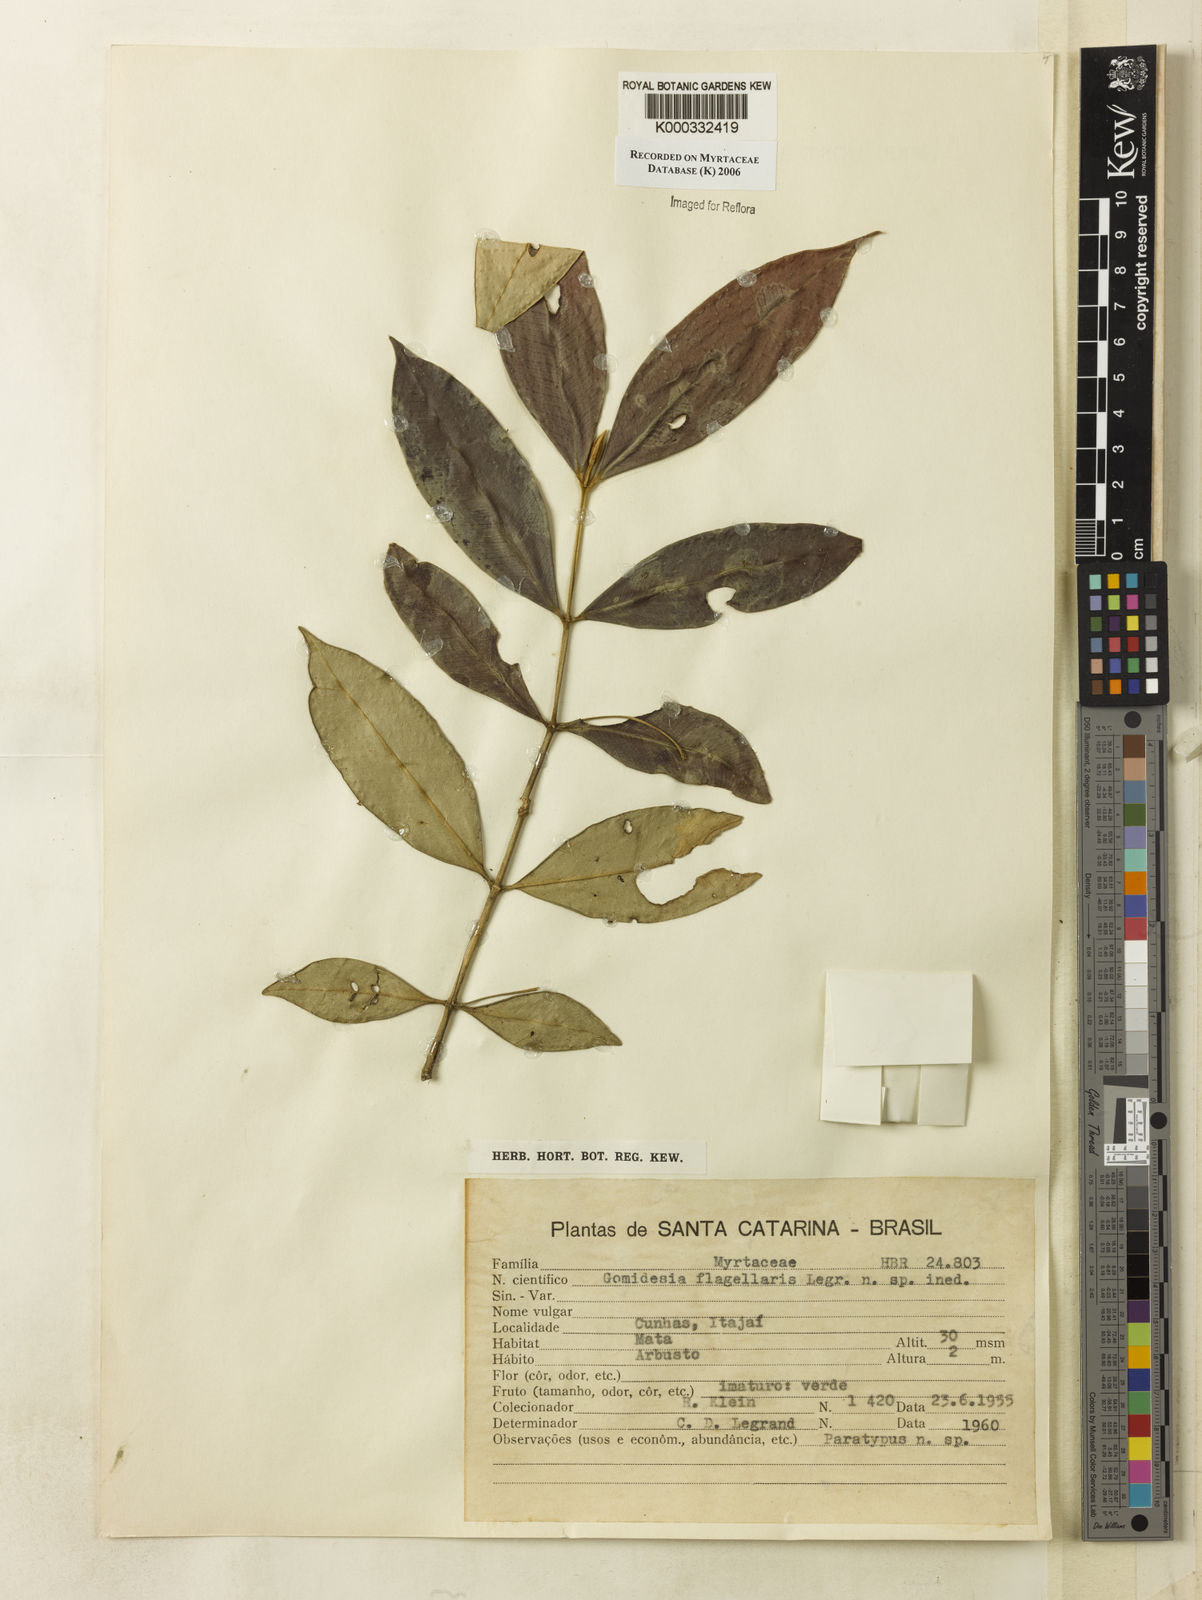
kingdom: Plantae
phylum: Tracheophyta
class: Magnoliopsida
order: Myrtales
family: Myrtaceae
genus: Myrcia
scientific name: Myrcia flagellaris
